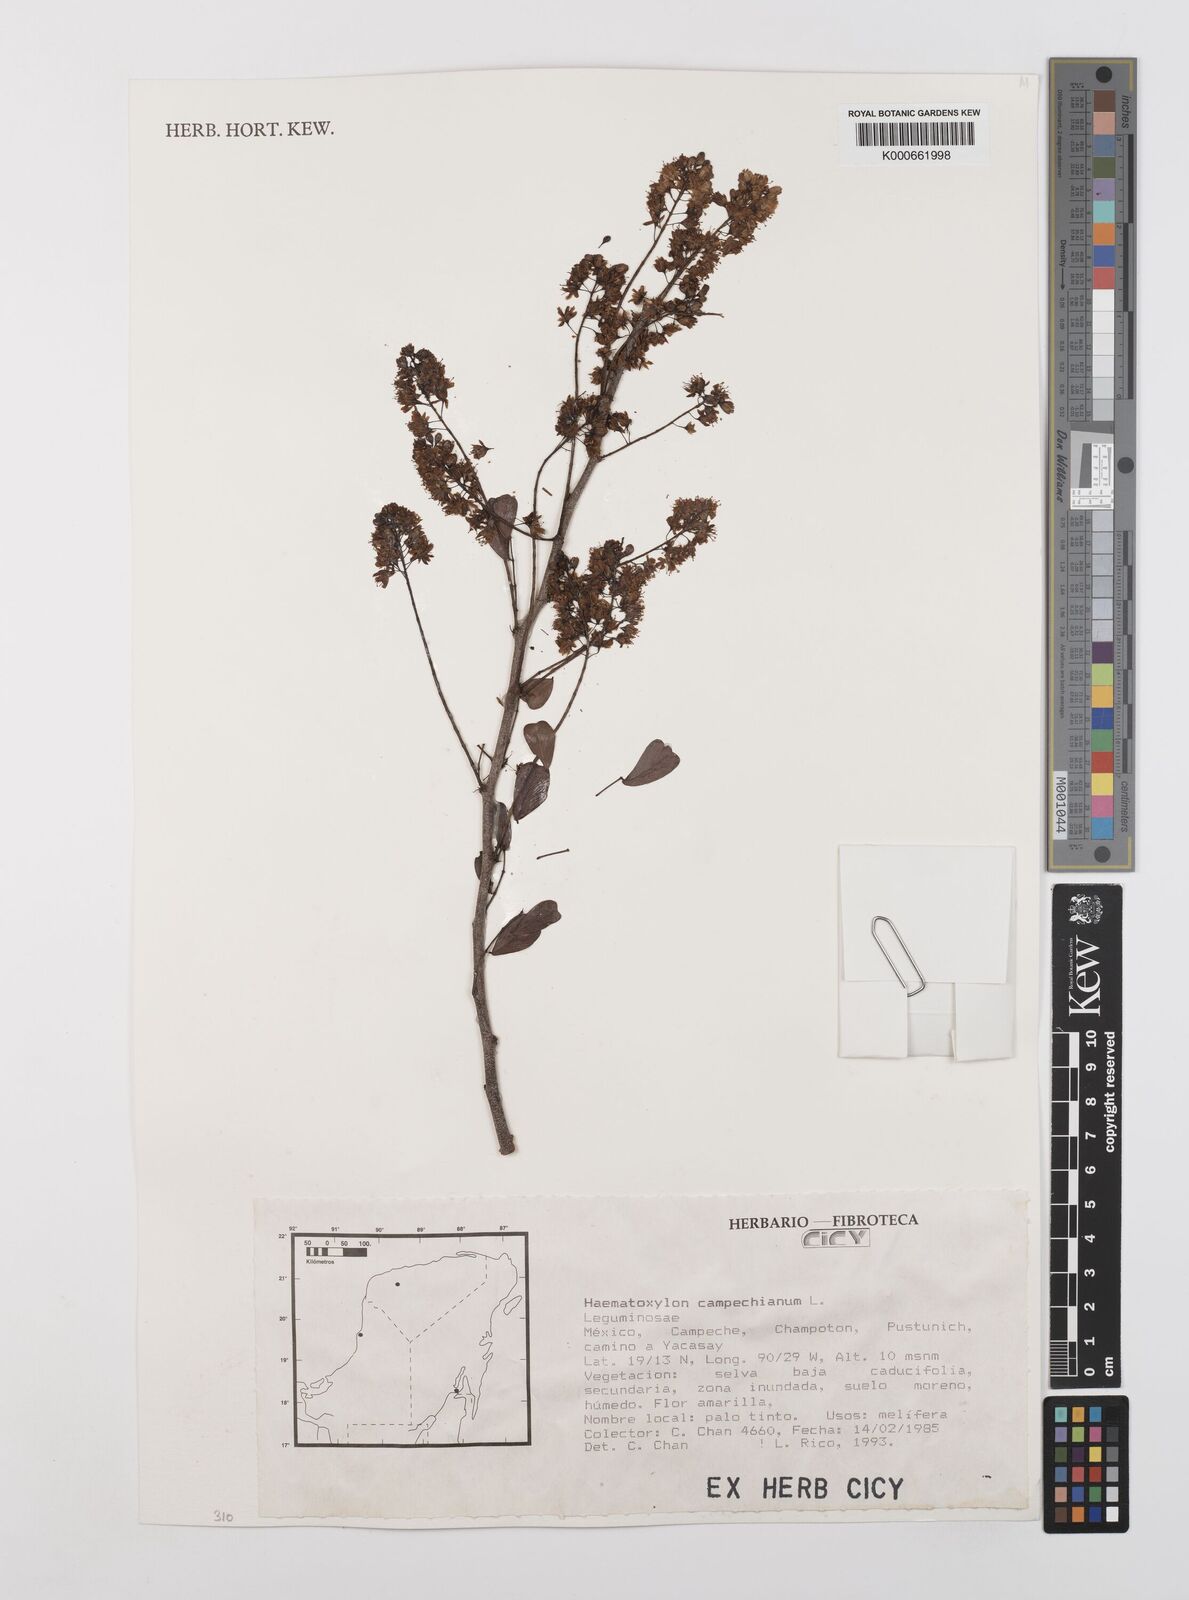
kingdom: Plantae
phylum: Tracheophyta
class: Magnoliopsida
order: Fabales
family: Fabaceae
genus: Haematoxylum
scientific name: Haematoxylum
